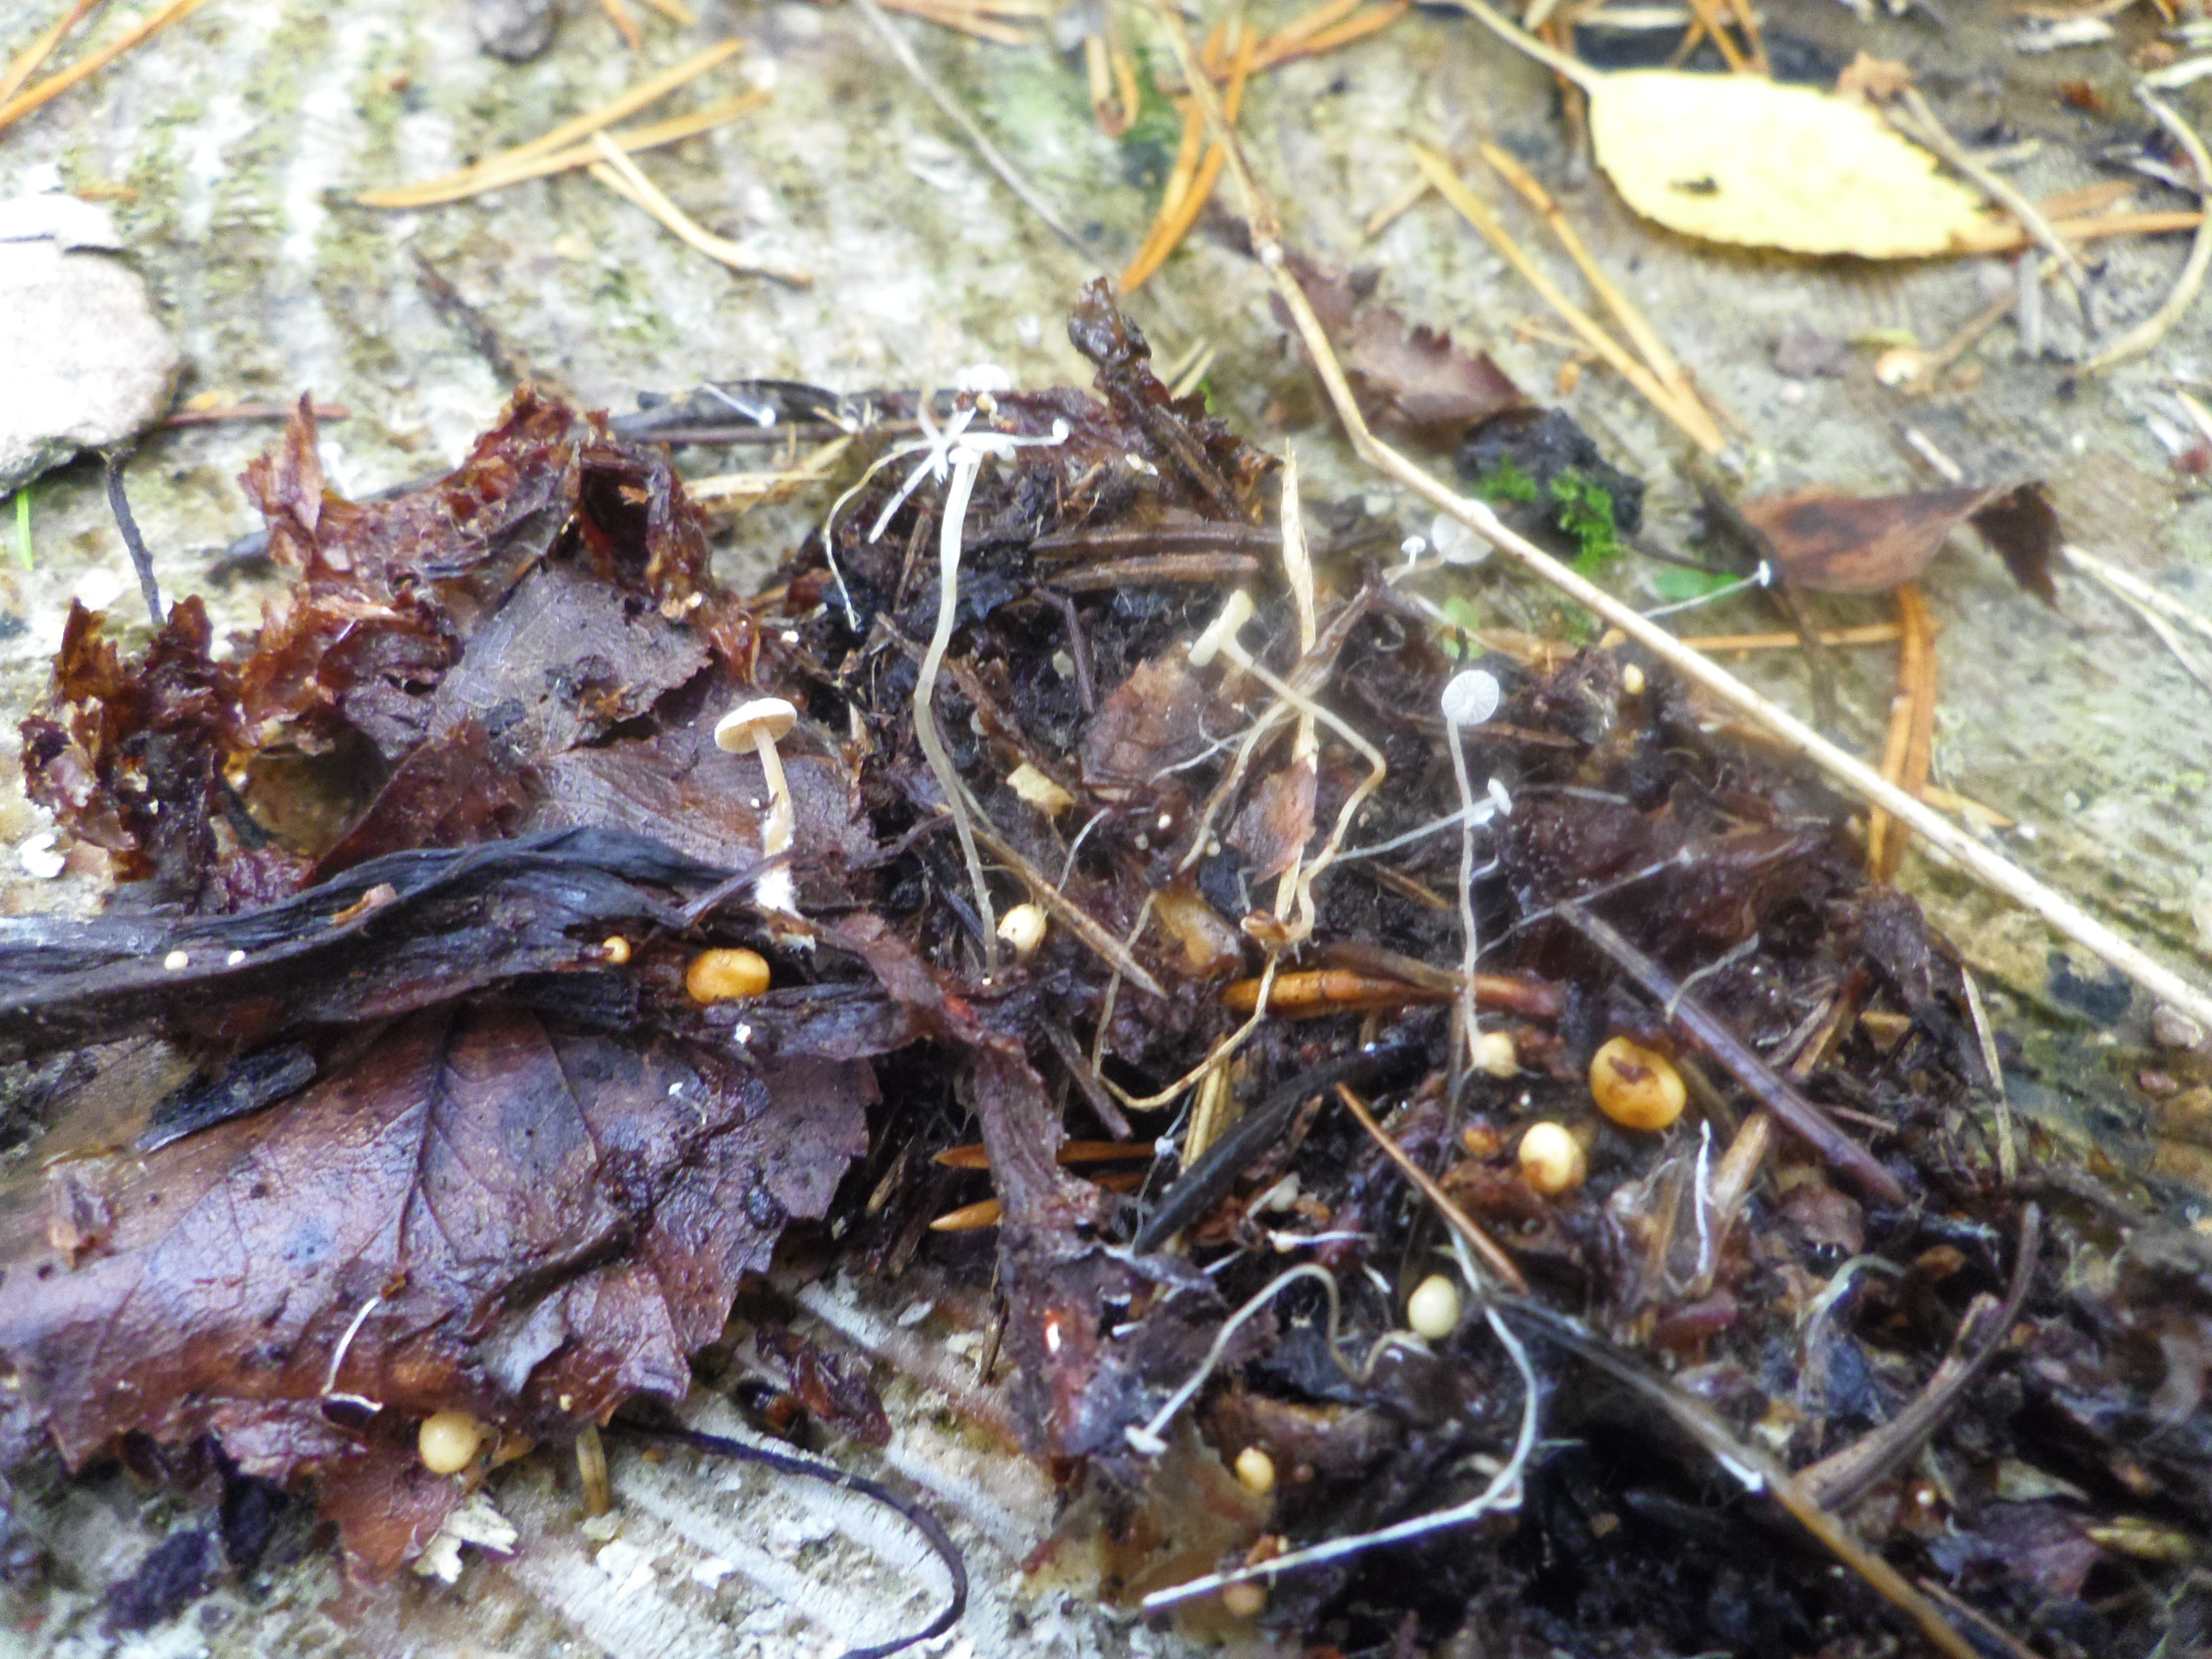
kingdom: Fungi
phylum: Basidiomycota
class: Agaricomycetes
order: Agaricales
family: Tricholomataceae
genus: Collybia
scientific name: Collybia cookei
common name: Splitpea shanklet
